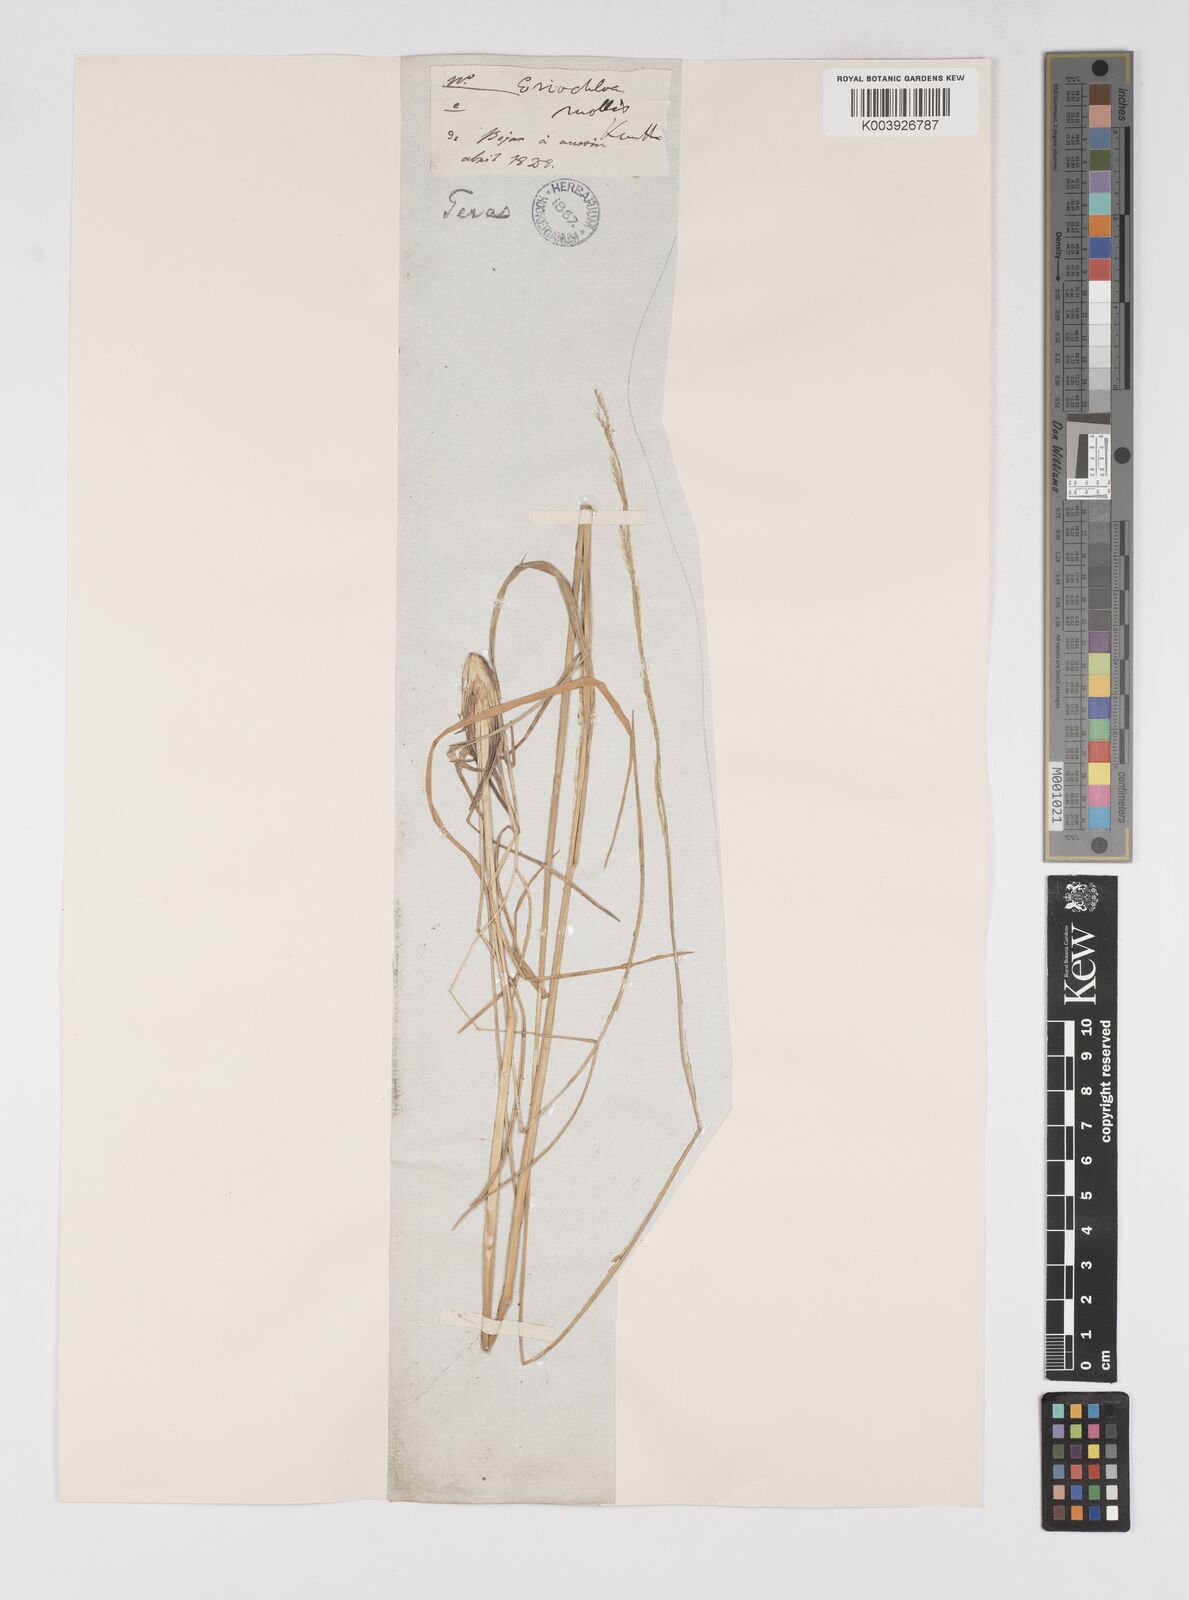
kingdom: Plantae
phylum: Tracheophyta
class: Liliopsida
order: Poales
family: Poaceae
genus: Eriochloa
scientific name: Eriochloa sericea
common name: Texas cup grass
